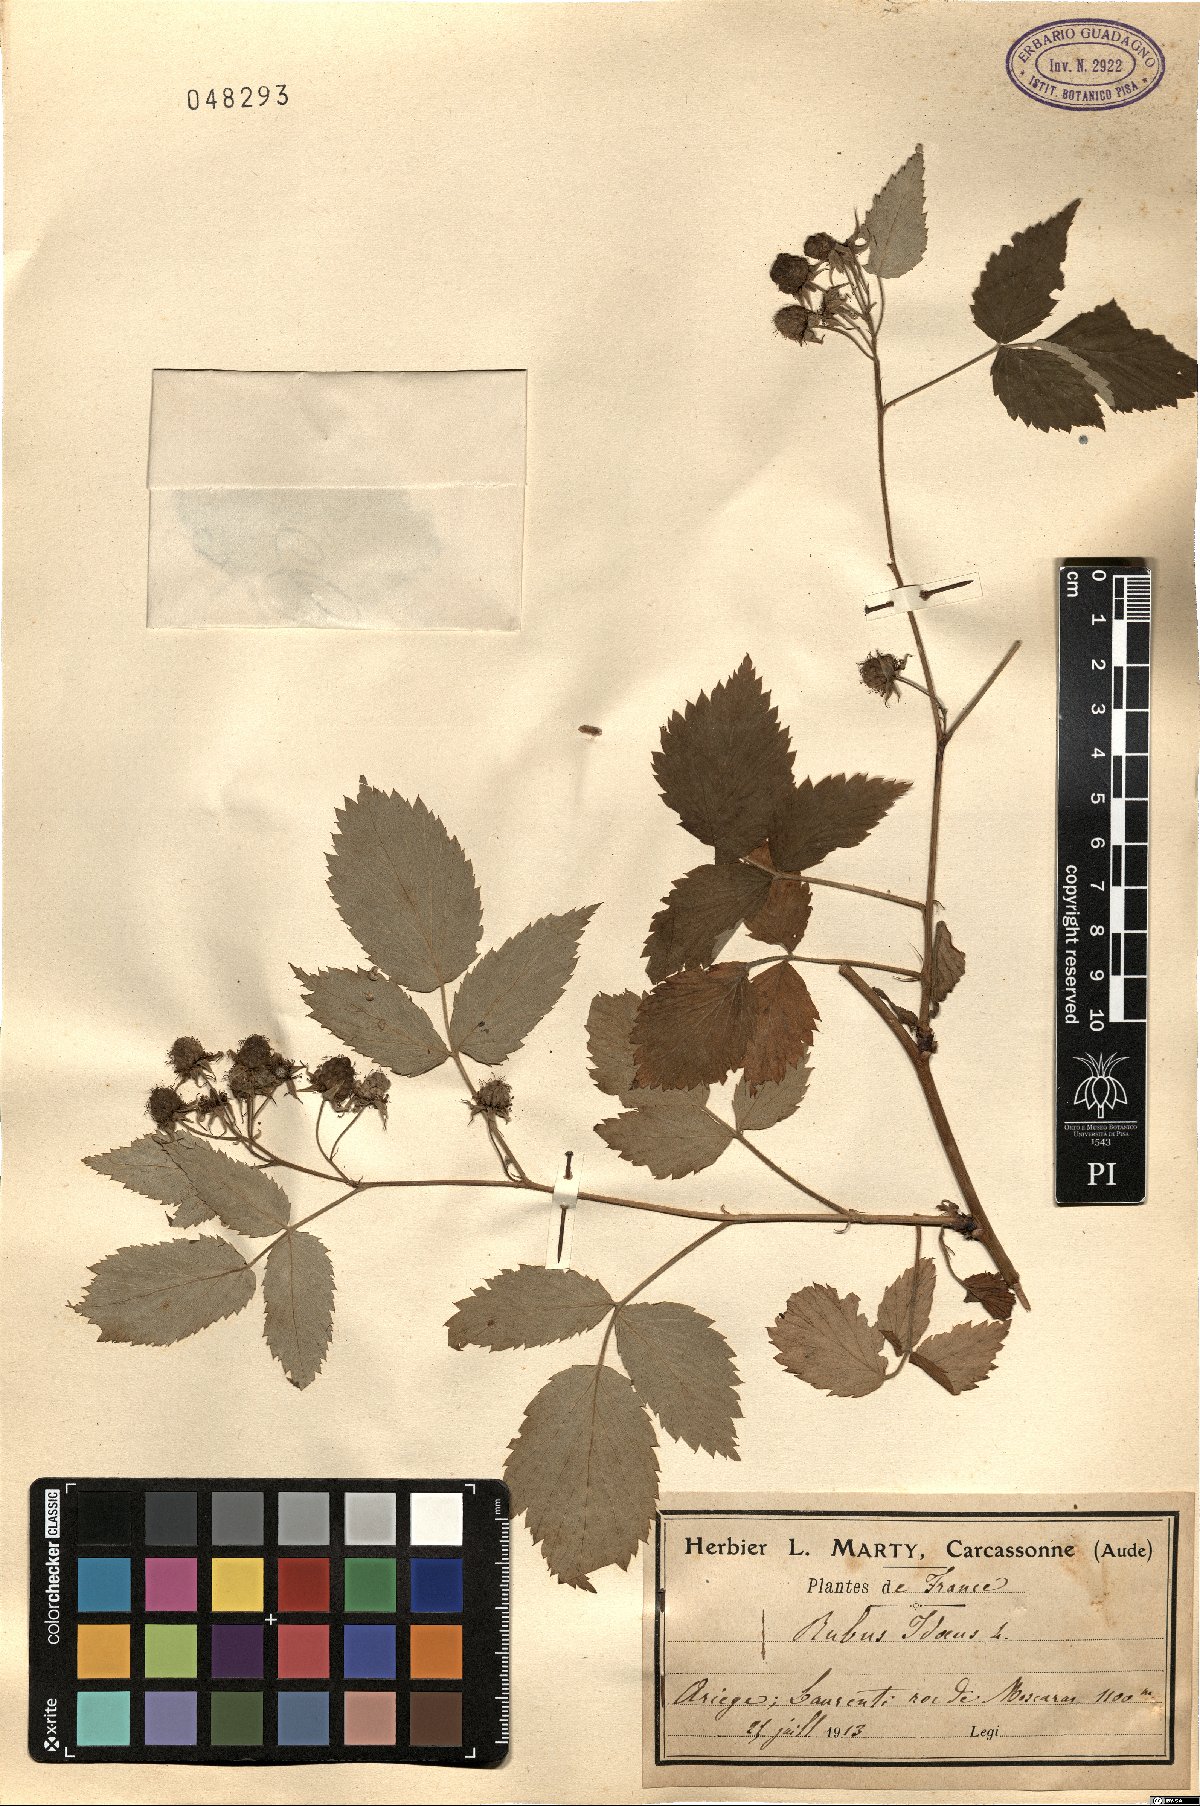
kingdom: Plantae
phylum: Tracheophyta
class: Magnoliopsida
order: Rosales
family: Rosaceae
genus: Rubus
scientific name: Rubus idaeus
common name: Raspberry
